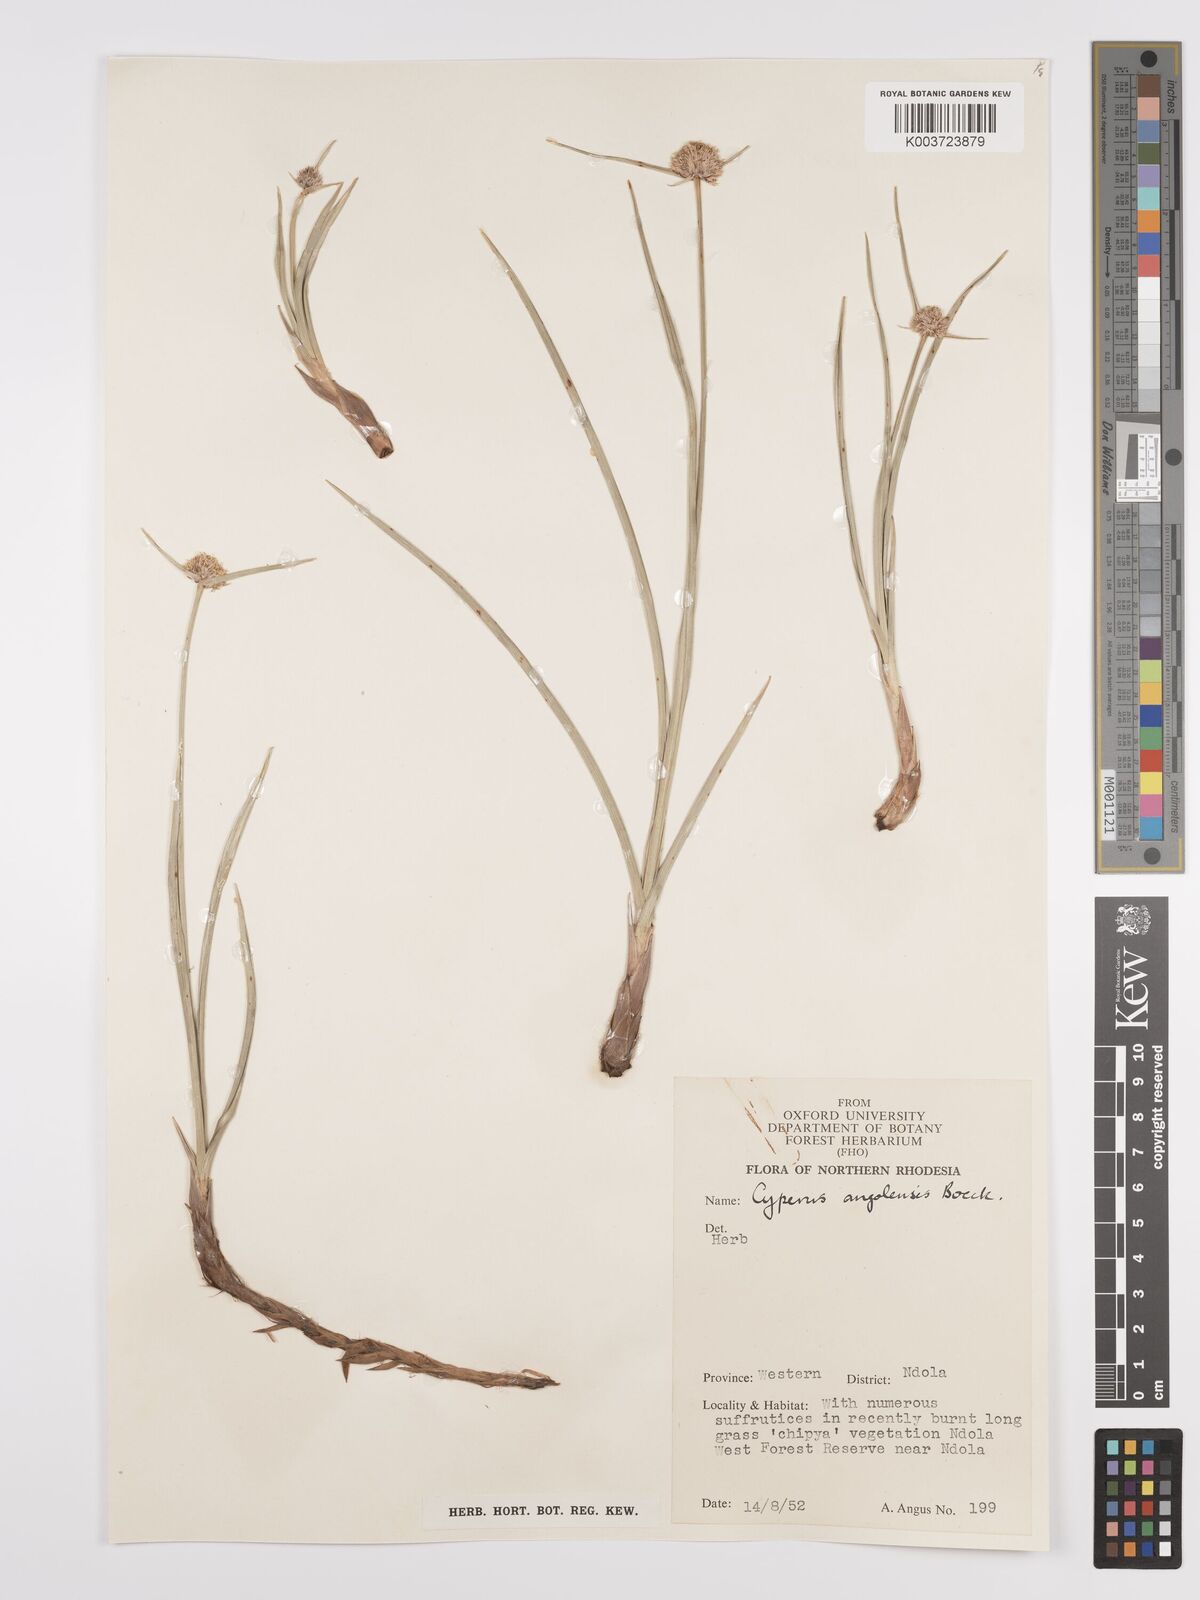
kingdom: Plantae
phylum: Tracheophyta
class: Liliopsida
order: Poales
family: Cyperaceae
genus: Cyperus
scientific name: Cyperus angolensis
